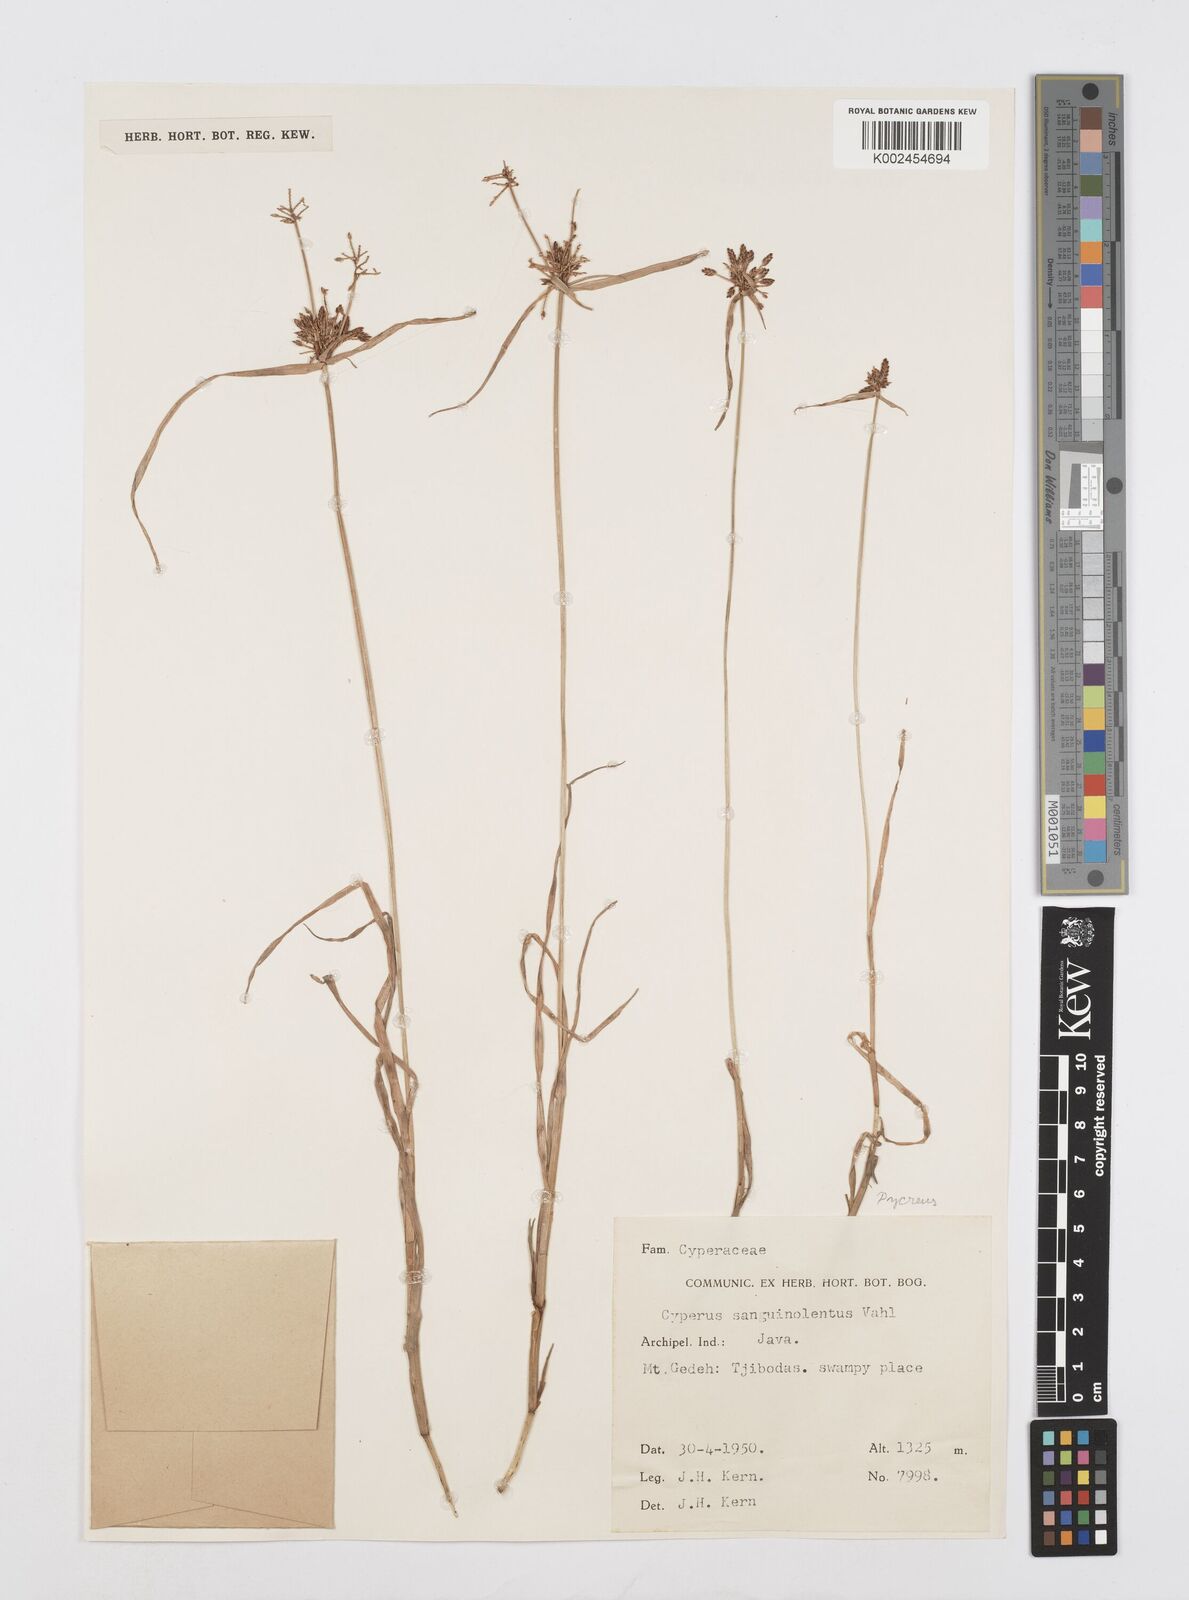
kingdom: Plantae
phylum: Tracheophyta
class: Liliopsida
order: Poales
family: Cyperaceae
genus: Cyperus
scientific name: Cyperus sanguinolentus
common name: Purpleglume flatsedge
